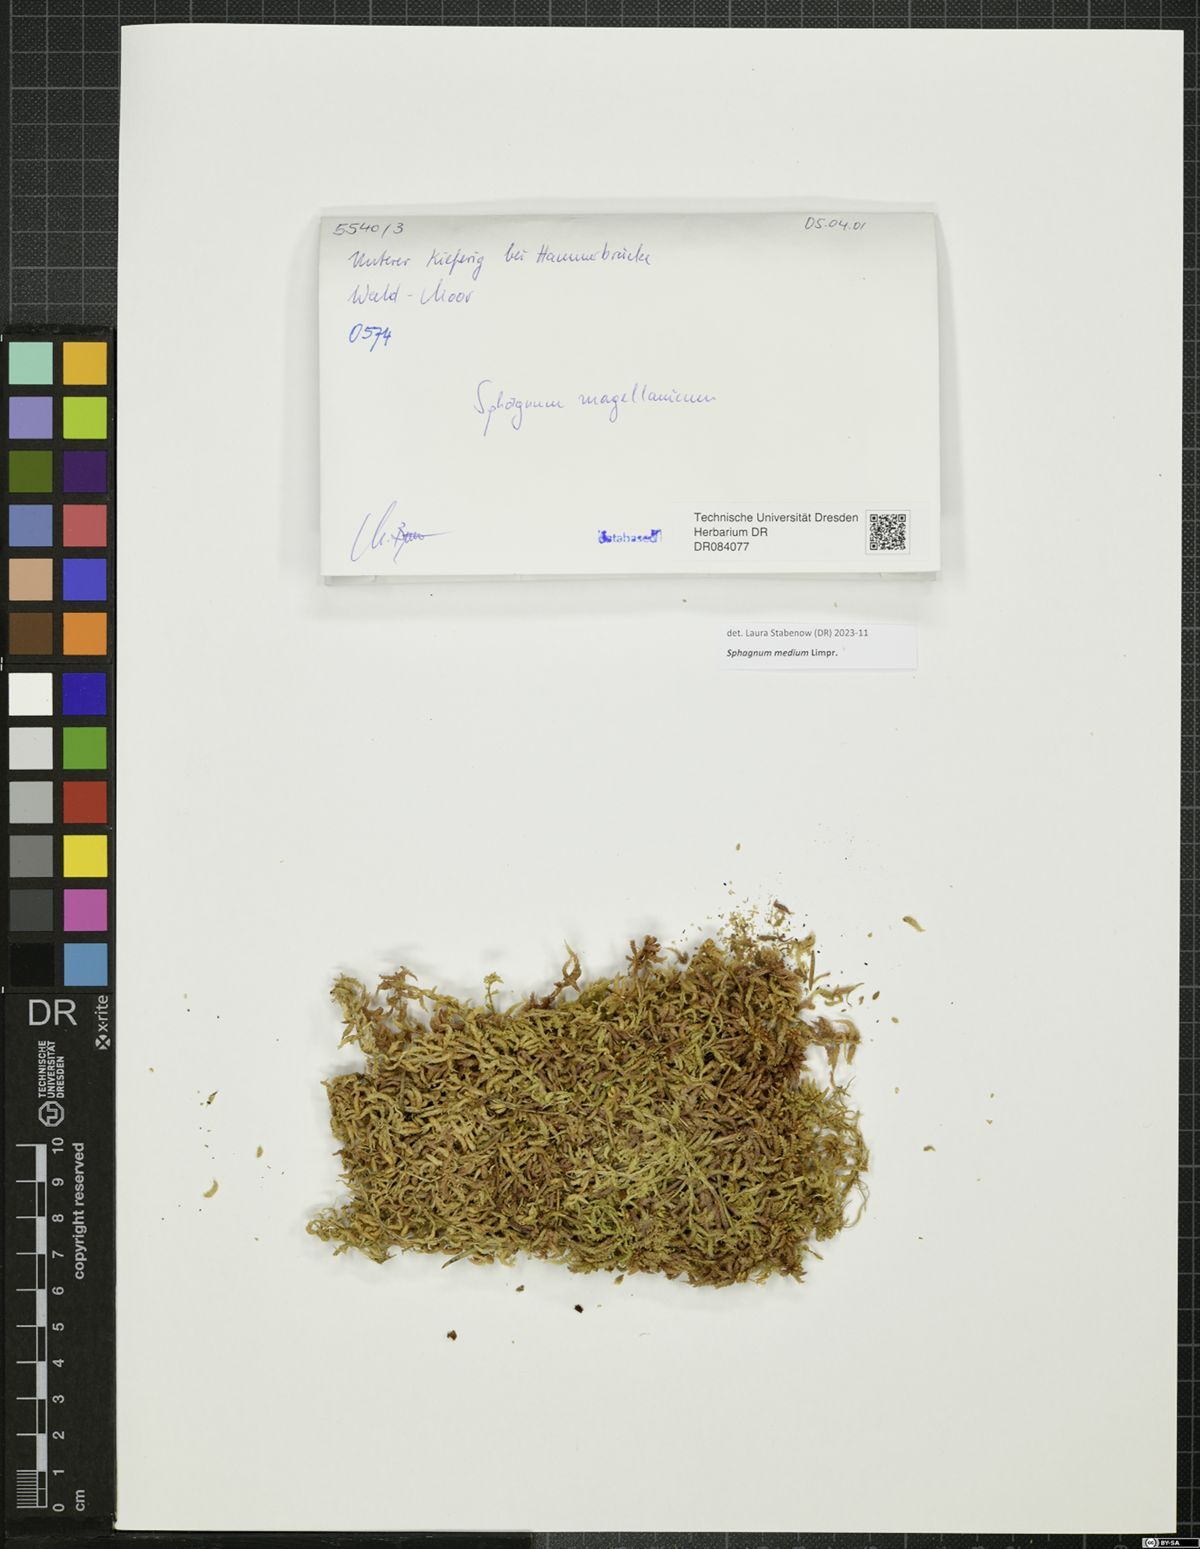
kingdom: Plantae
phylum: Bryophyta
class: Sphagnopsida
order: Sphagnales
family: Sphagnaceae
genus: Sphagnum
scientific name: Sphagnum medium
